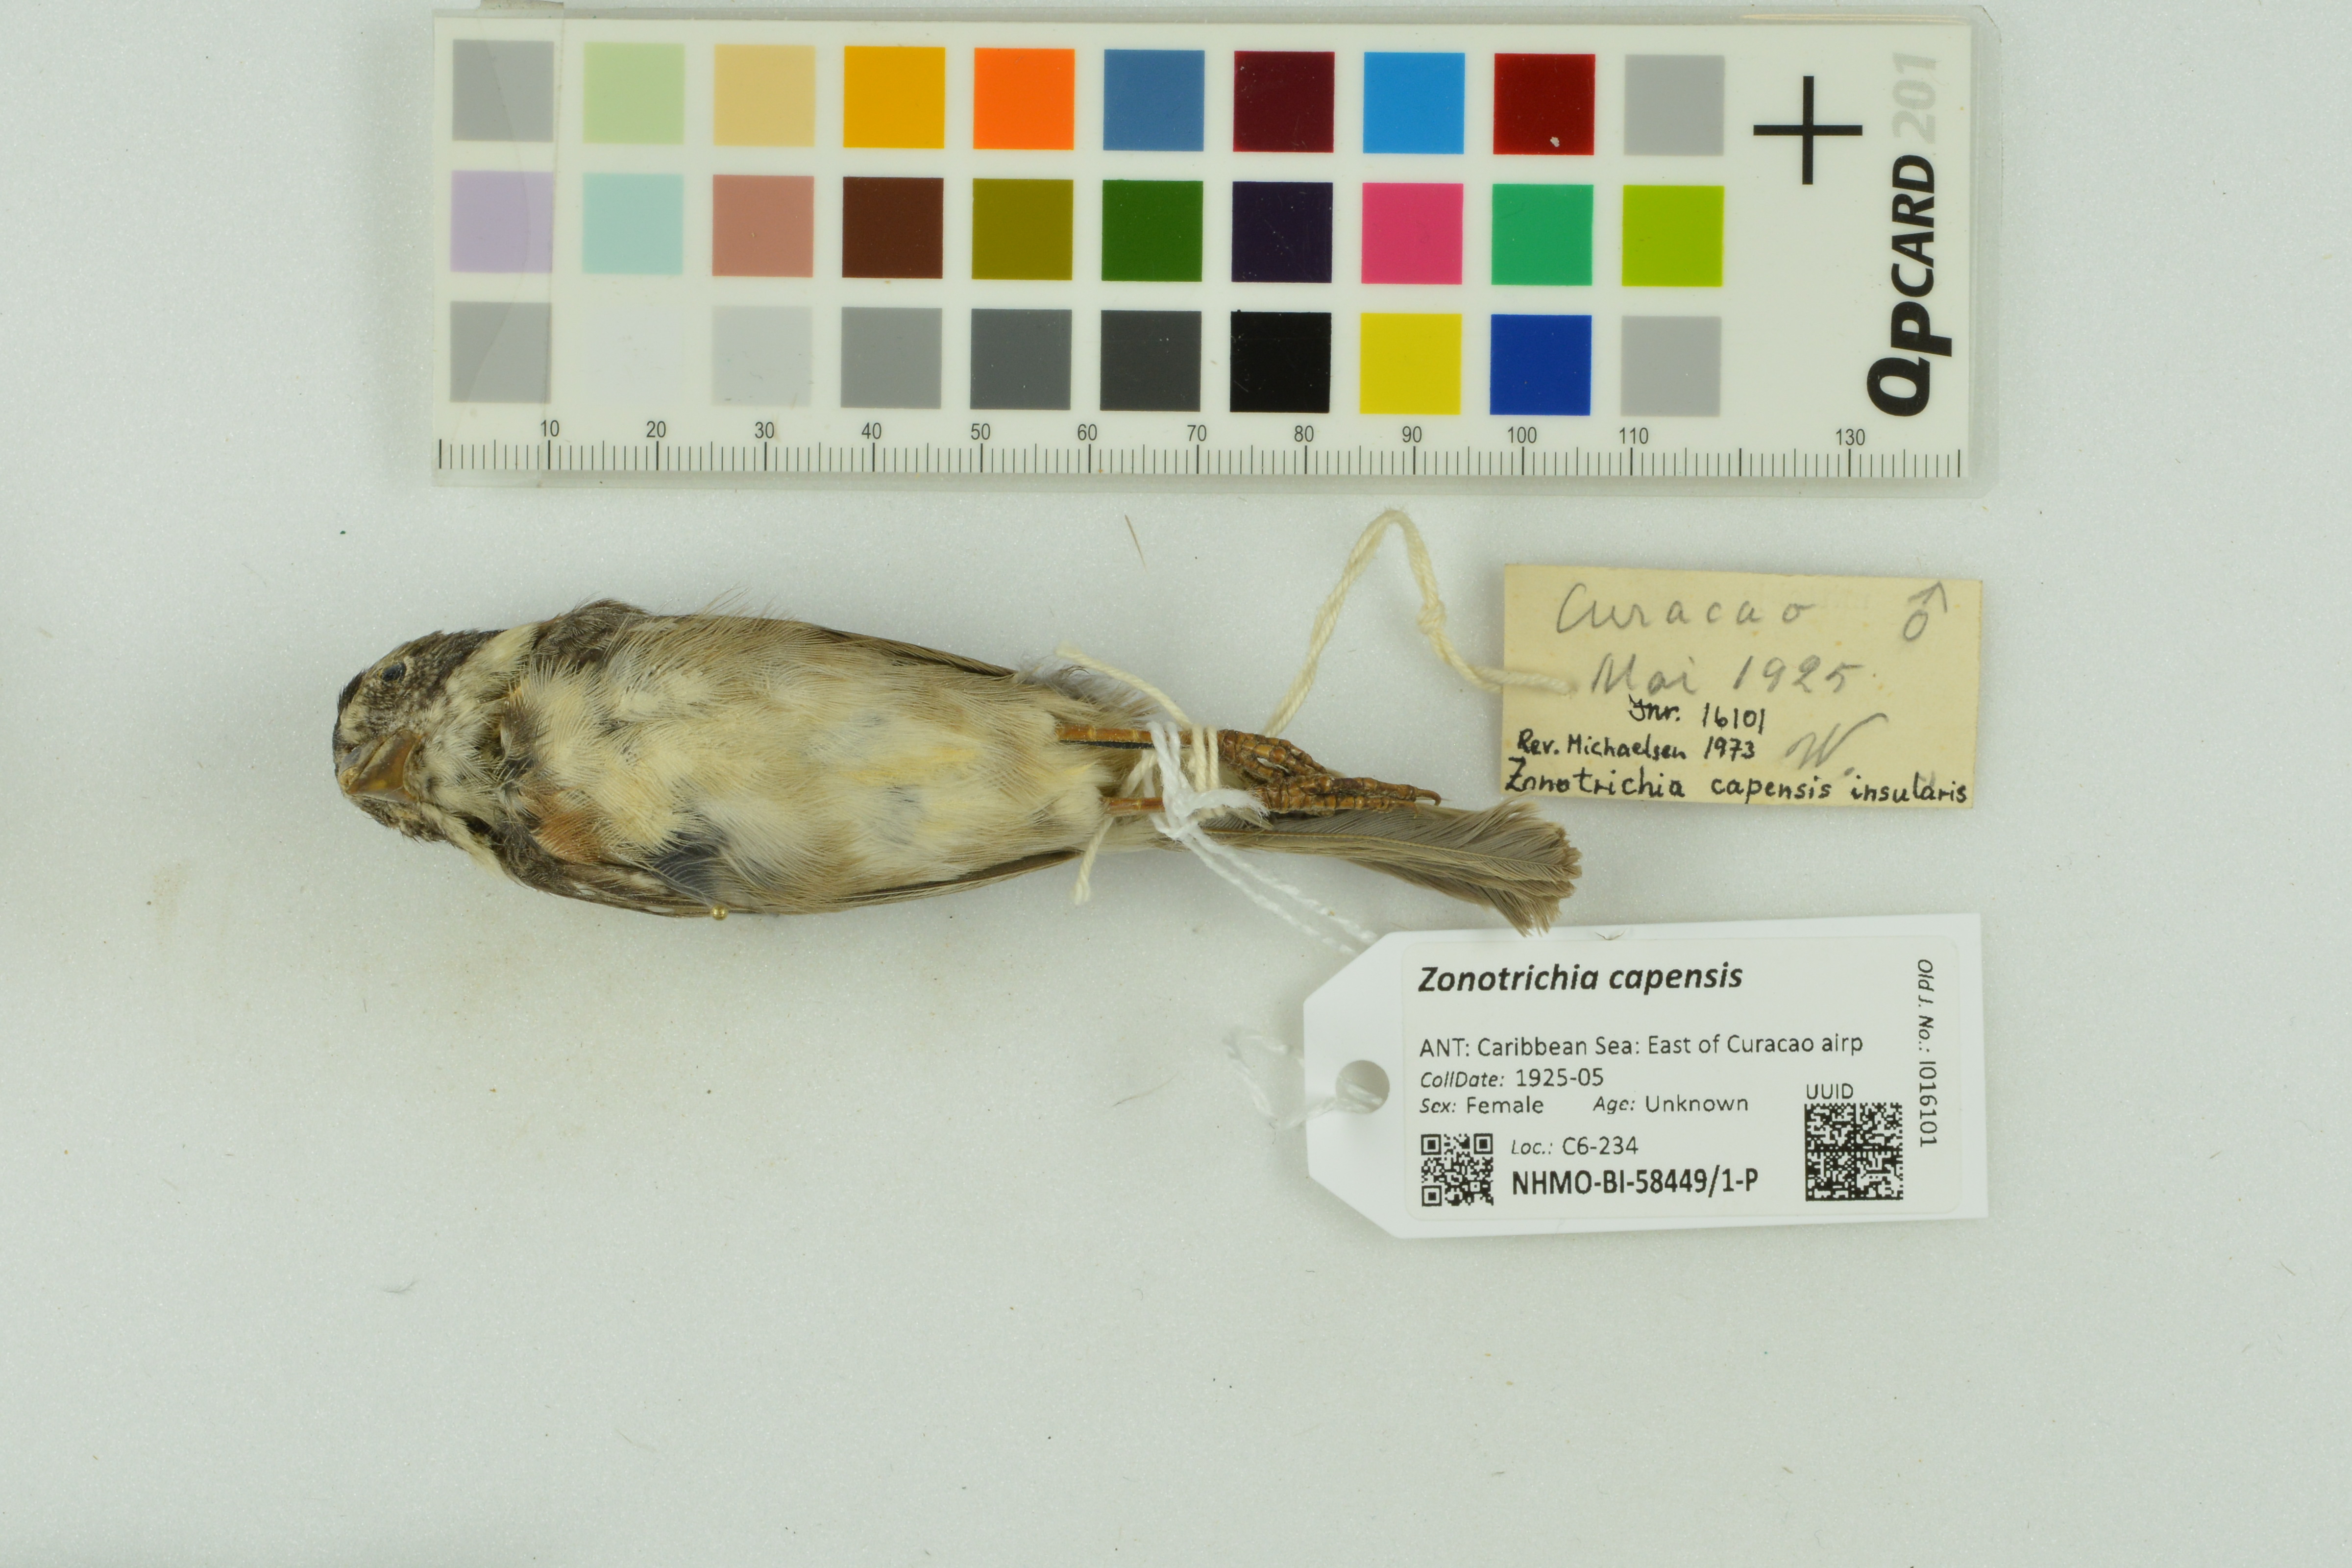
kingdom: Animalia
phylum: Chordata
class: Aves
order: Passeriformes
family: Passerellidae
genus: Zonotrichia
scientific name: Zonotrichia capensis
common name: Rufous-collared sparrow
